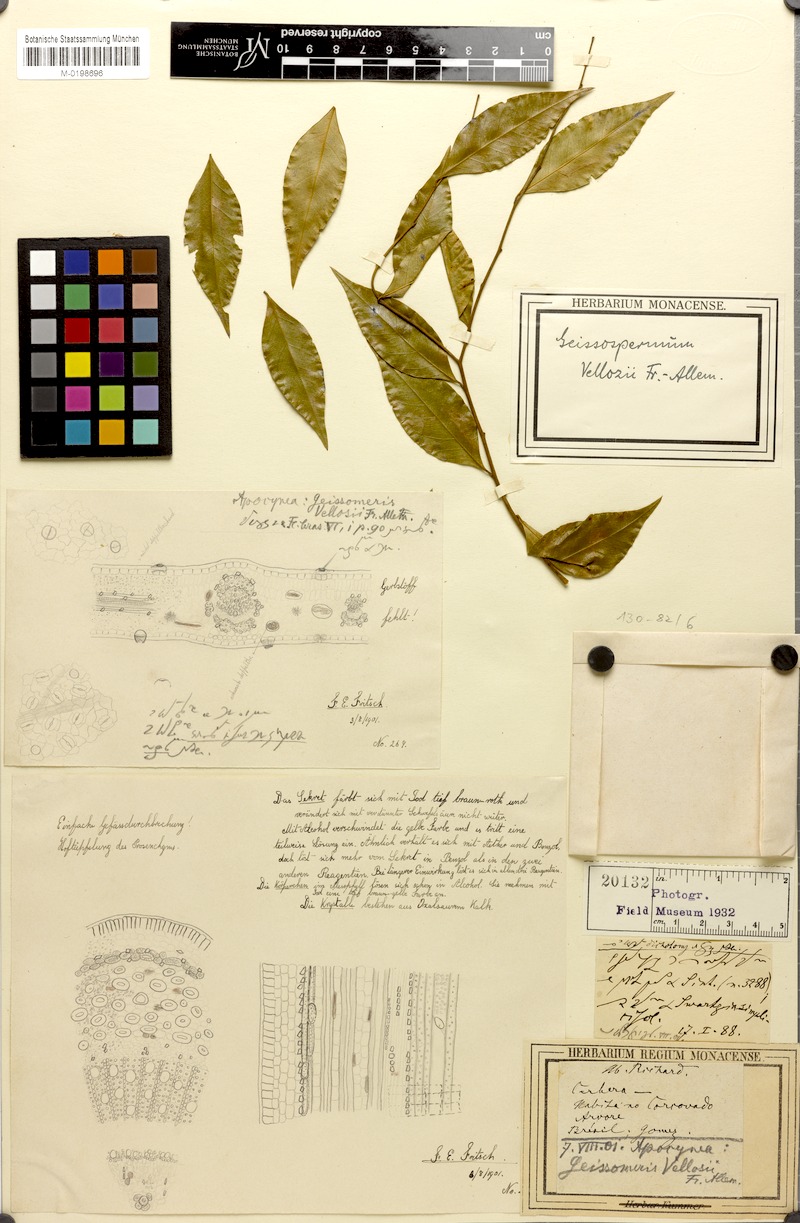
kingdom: Plantae
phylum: Tracheophyta
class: Magnoliopsida
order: Gentianales
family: Apocynaceae
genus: Geissospermum
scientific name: Geissospermum laeve
